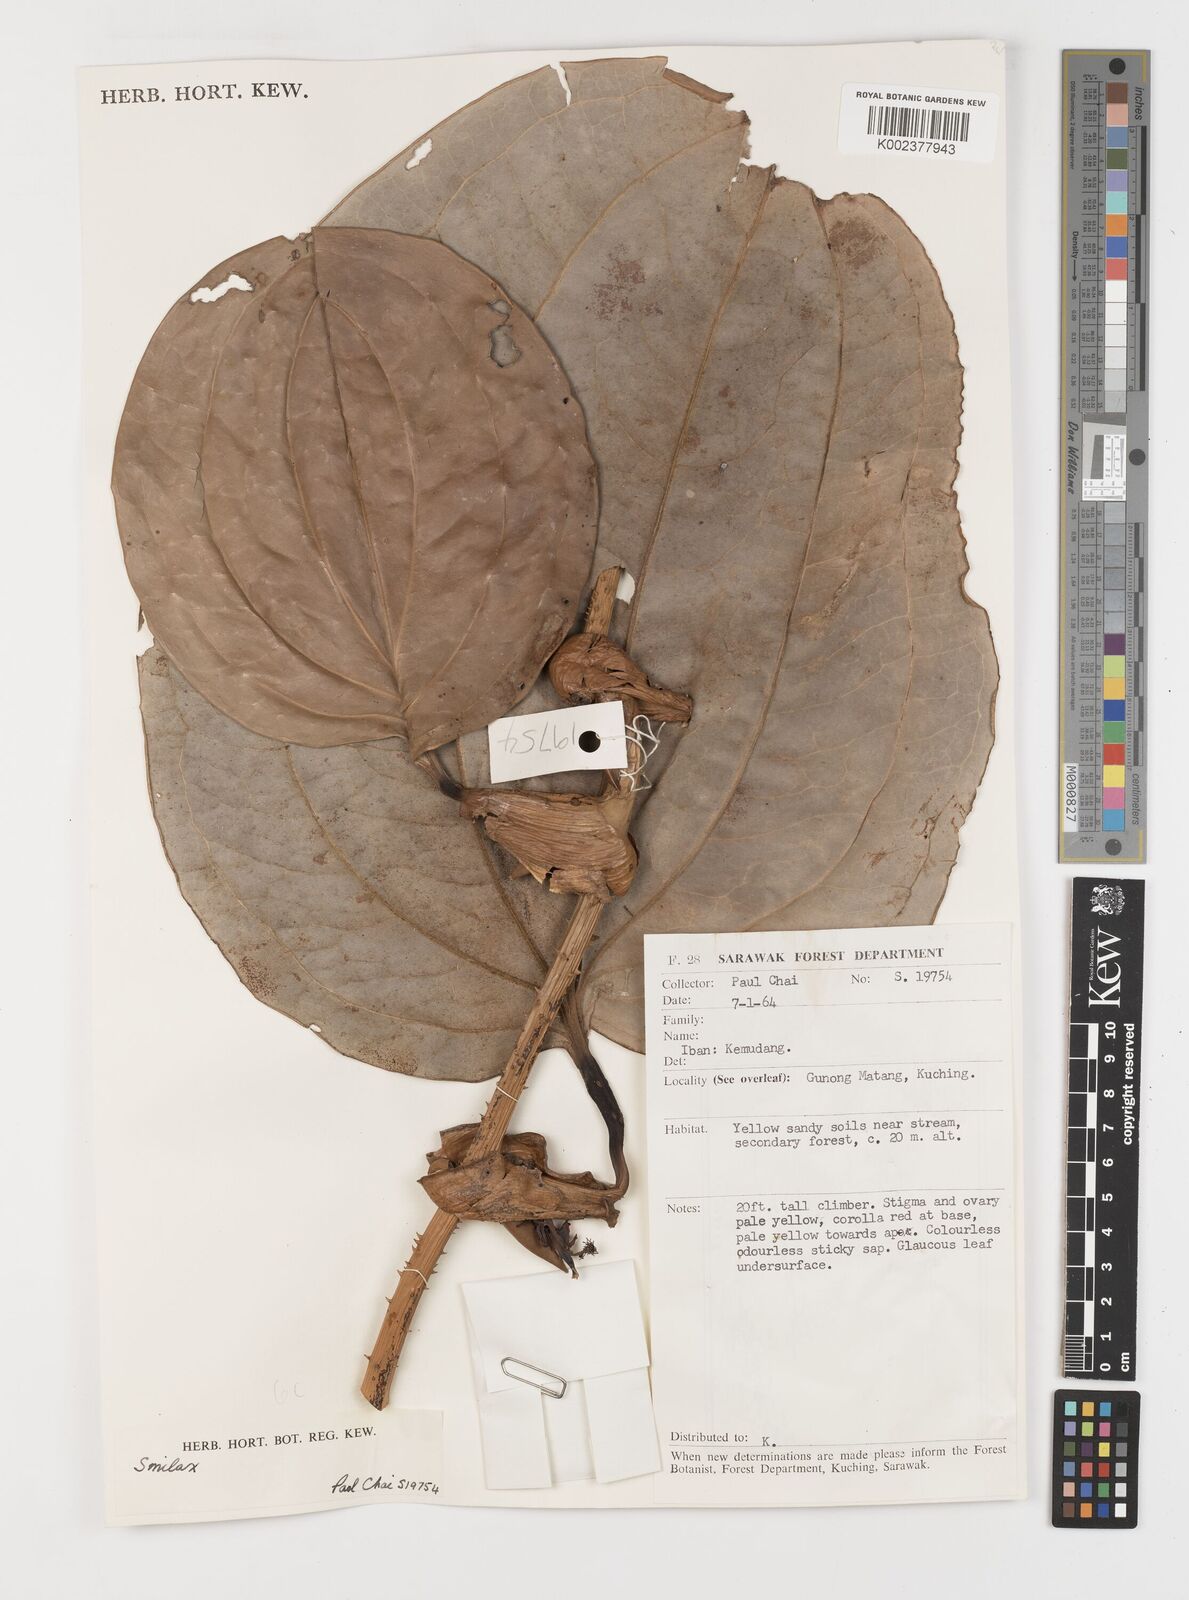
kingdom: Plantae
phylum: Tracheophyta
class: Liliopsida
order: Liliales
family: Smilacaceae
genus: Smilax
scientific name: Smilax
